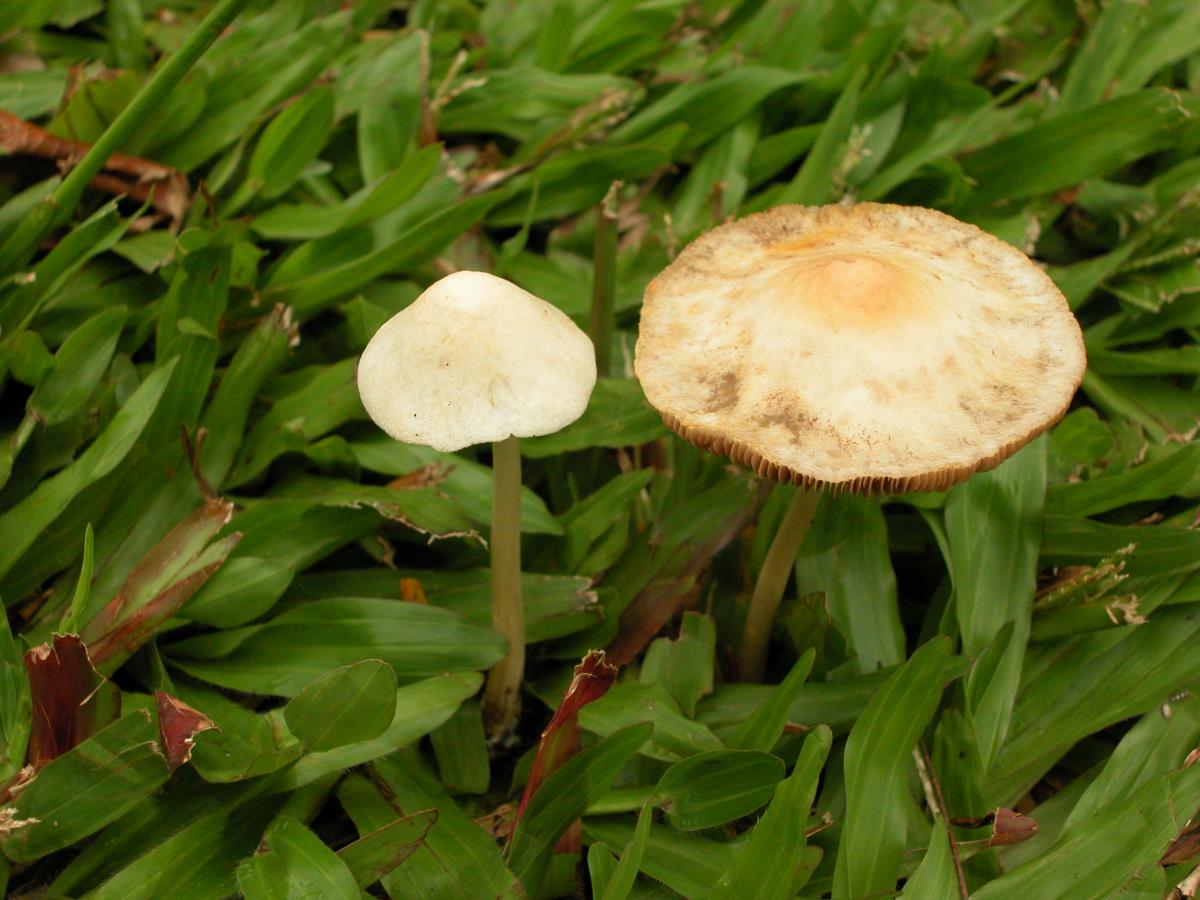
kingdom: Fungi
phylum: Basidiomycota
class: Agaricomycetes
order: Agaricales
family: Bolbitiaceae
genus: Conocybe
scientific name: Conocybe
